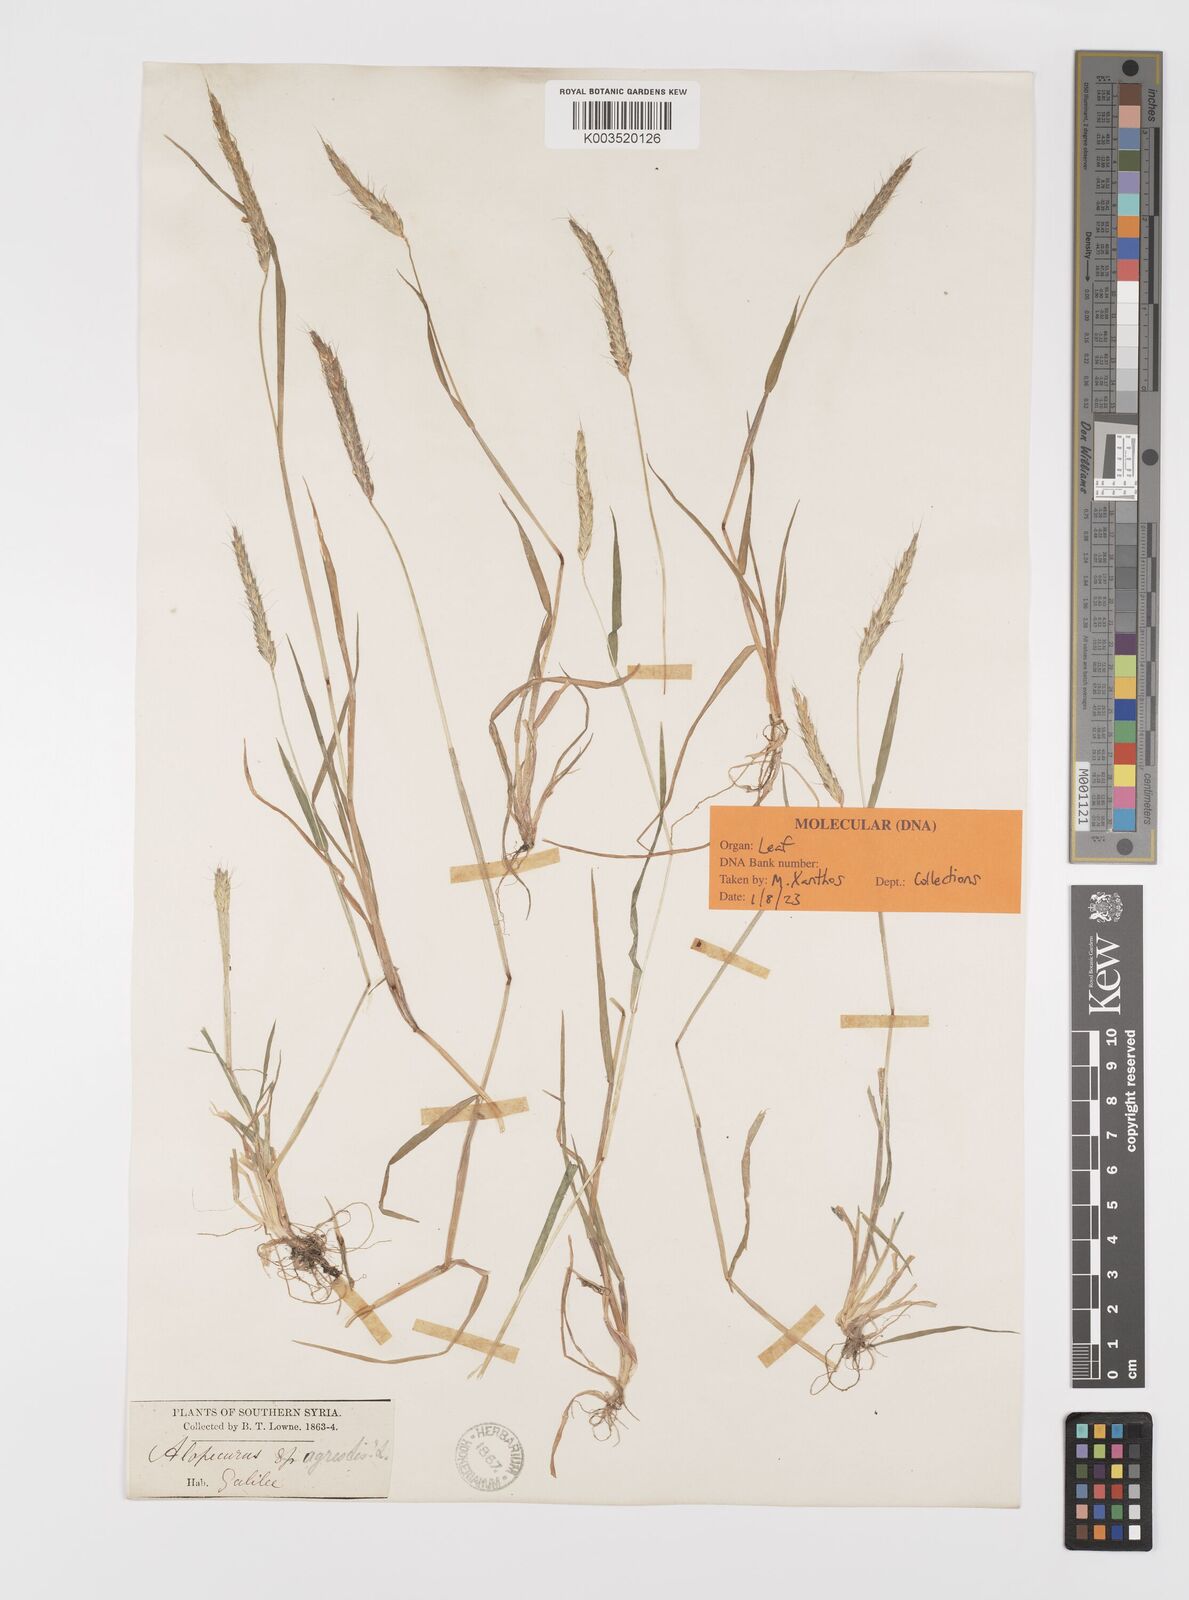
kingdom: Plantae
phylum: Tracheophyta
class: Liliopsida
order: Poales
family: Poaceae
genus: Alopecurus
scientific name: Alopecurus myosuroides
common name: Black-grass
